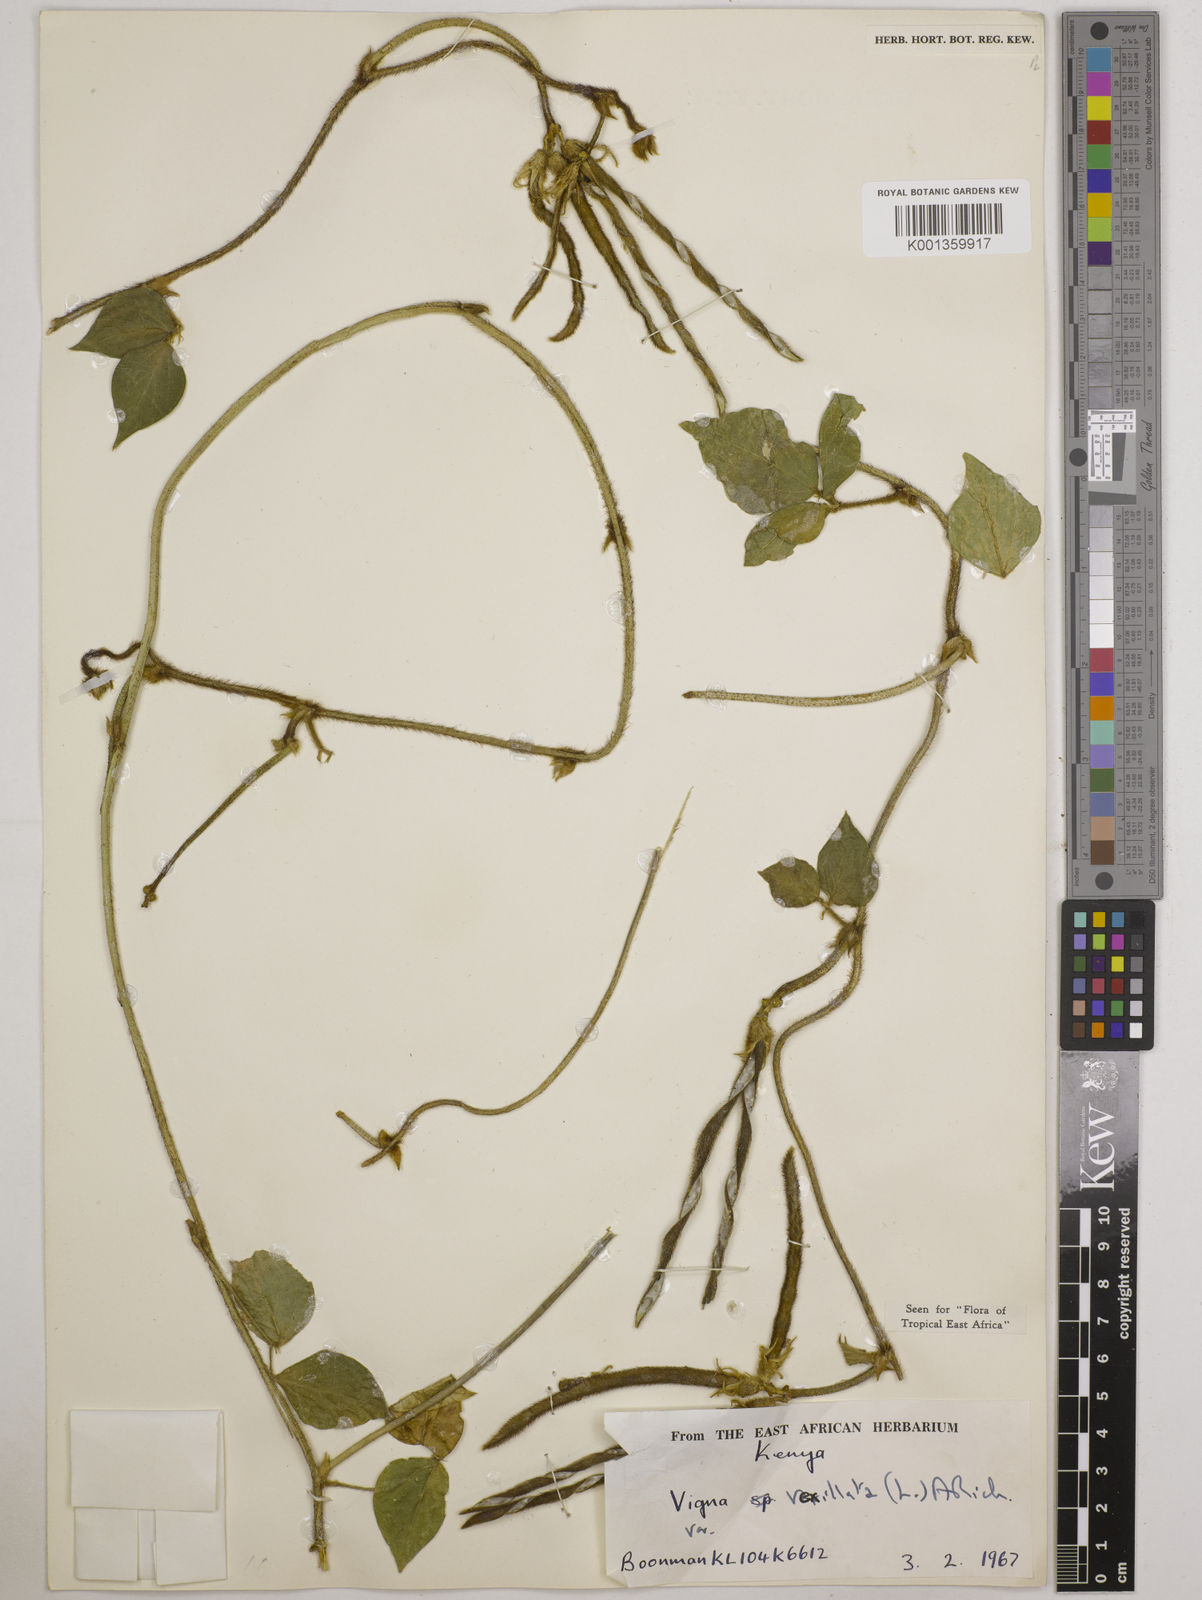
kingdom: Plantae
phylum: Tracheophyta
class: Magnoliopsida
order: Fabales
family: Fabaceae
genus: Vigna
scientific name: Vigna vexillata
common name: Zombi pea
